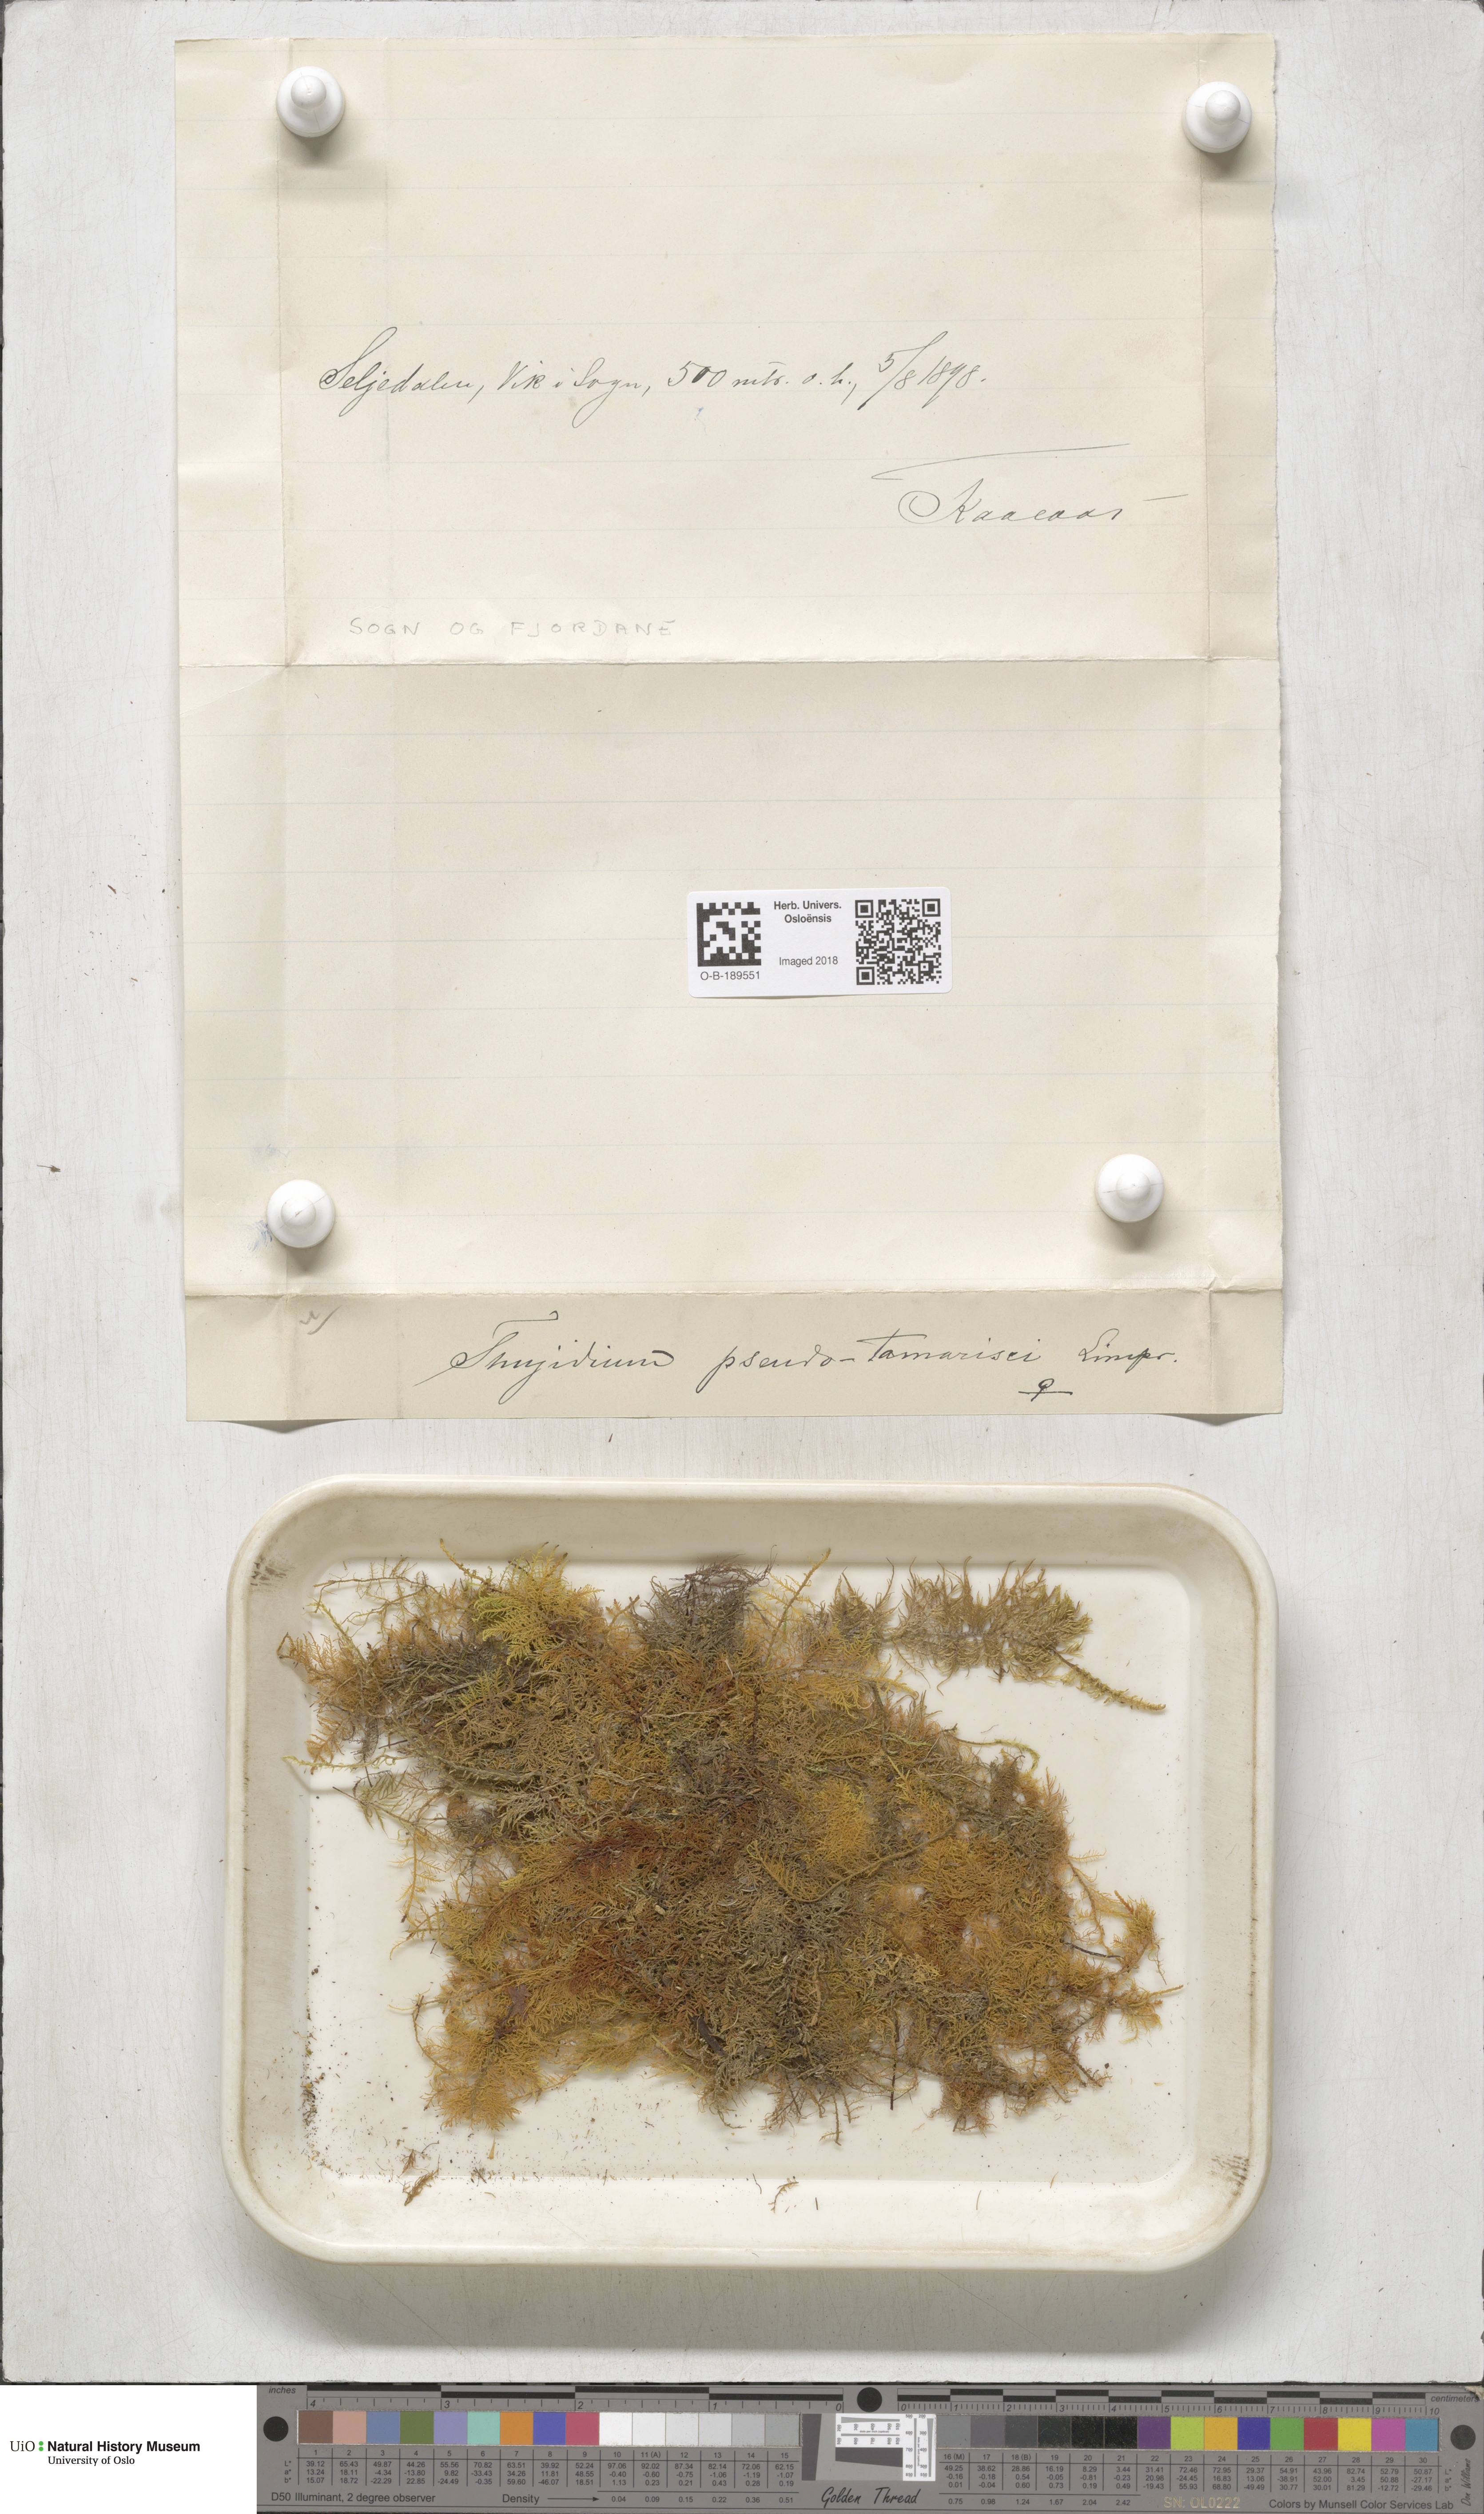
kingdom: Plantae
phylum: Bryophyta
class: Bryopsida
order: Hypnales
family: Thuidiaceae
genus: Thuidium
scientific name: Thuidium assimile
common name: Philibert's fern moss
